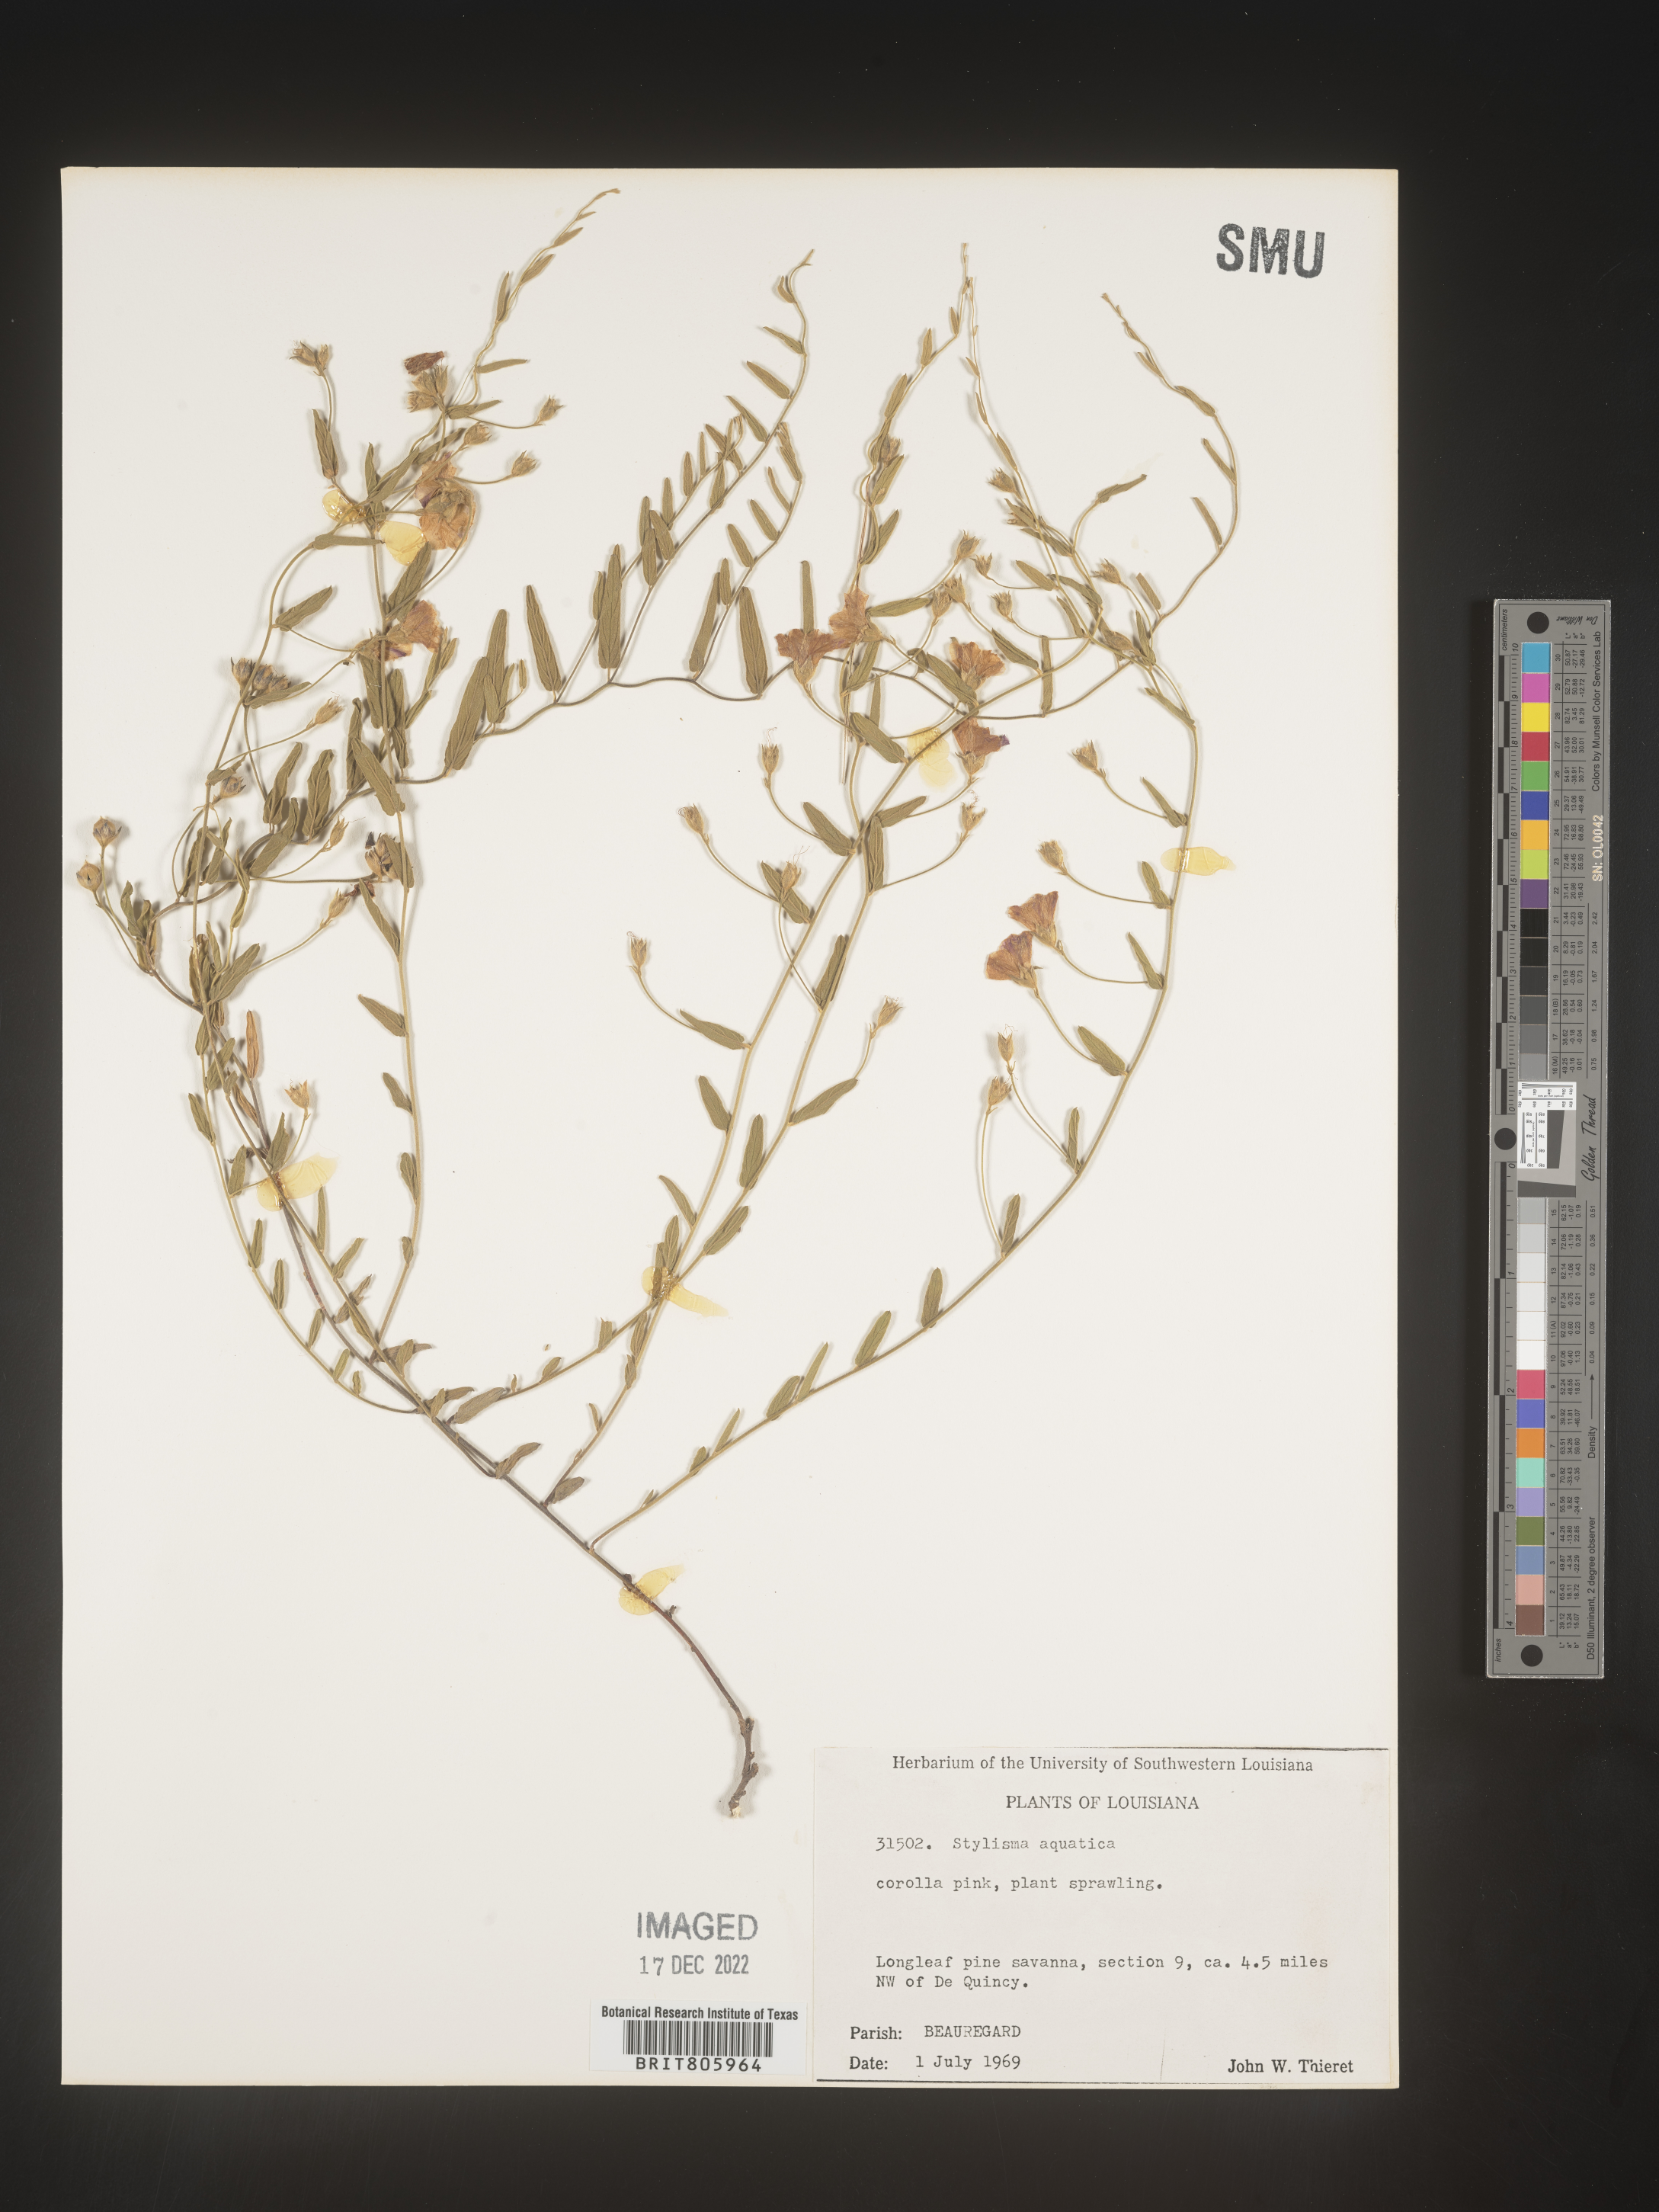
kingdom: Plantae
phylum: Tracheophyta
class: Magnoliopsida
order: Solanales
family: Convolvulaceae
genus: Stylisma
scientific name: Stylisma
